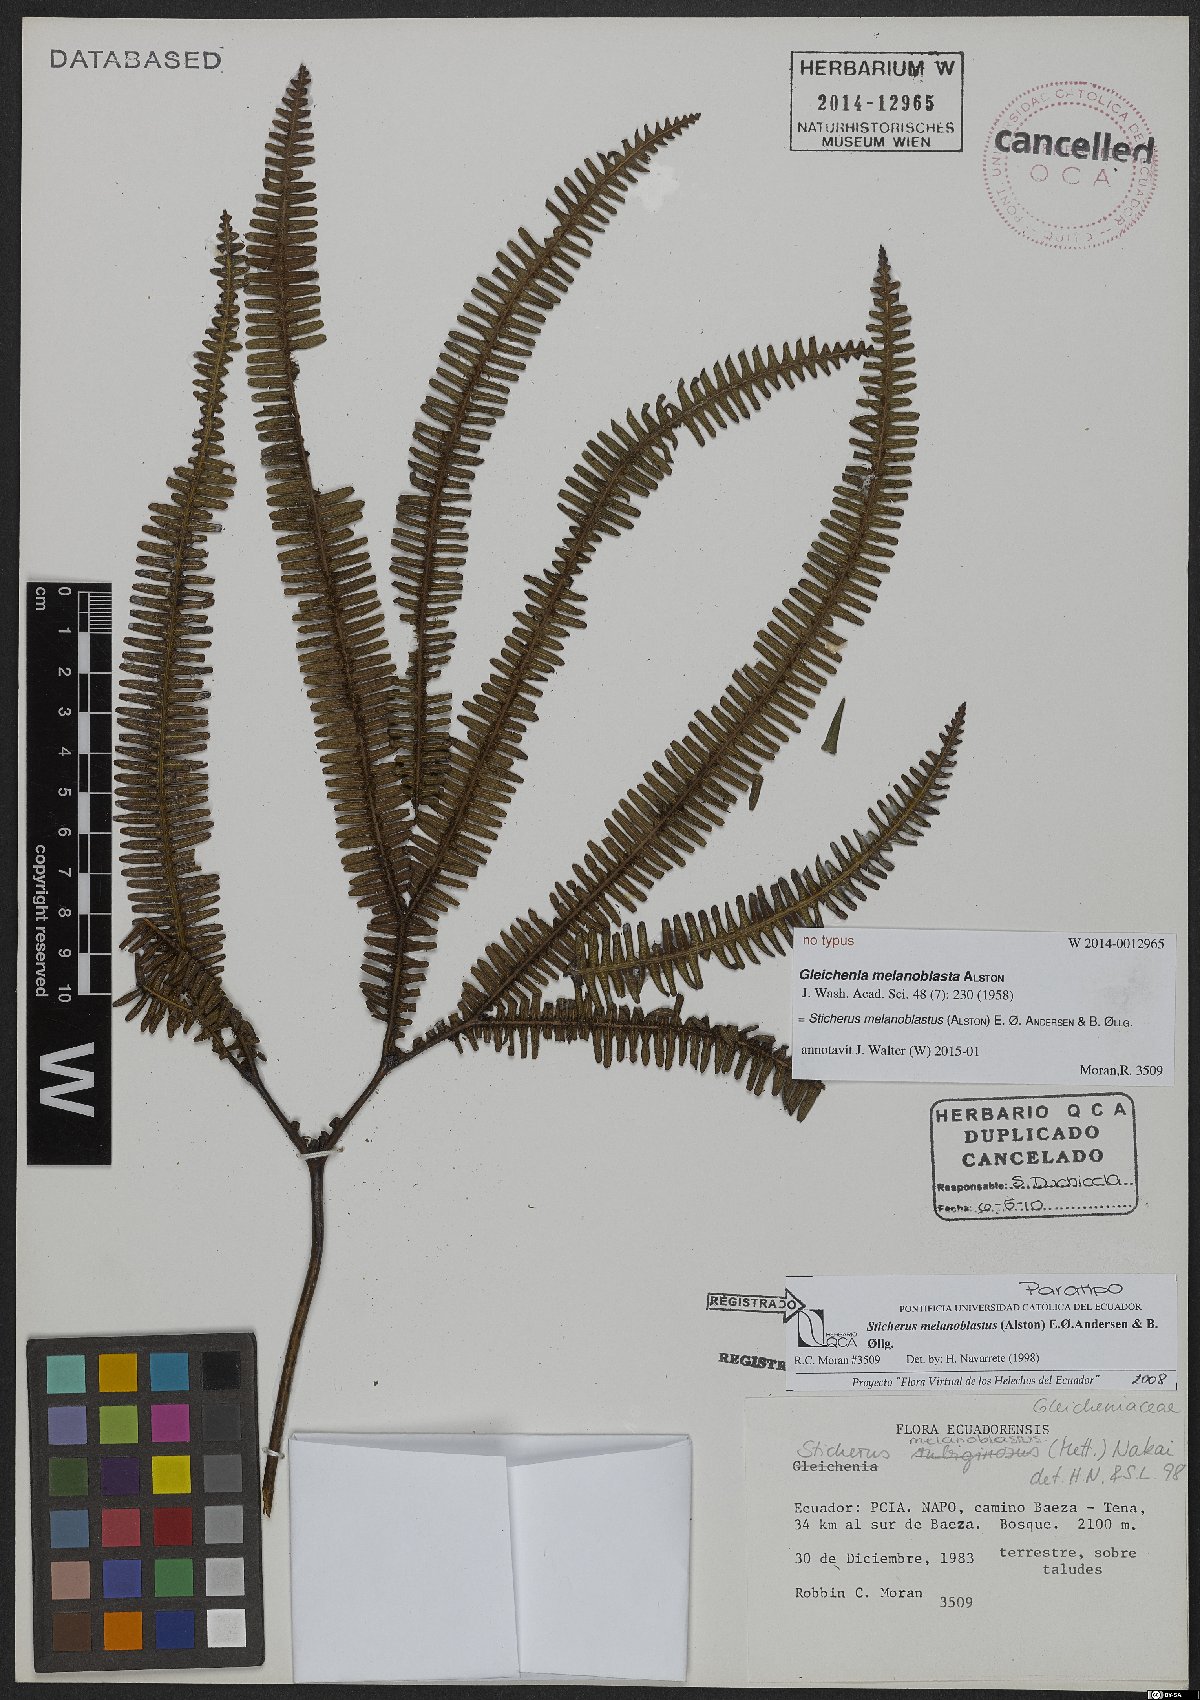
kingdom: Plantae
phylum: Tracheophyta
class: Polypodiopsida
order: Gleicheniales
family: Gleicheniaceae
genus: Sticherus
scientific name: Sticherus melanoblastus
